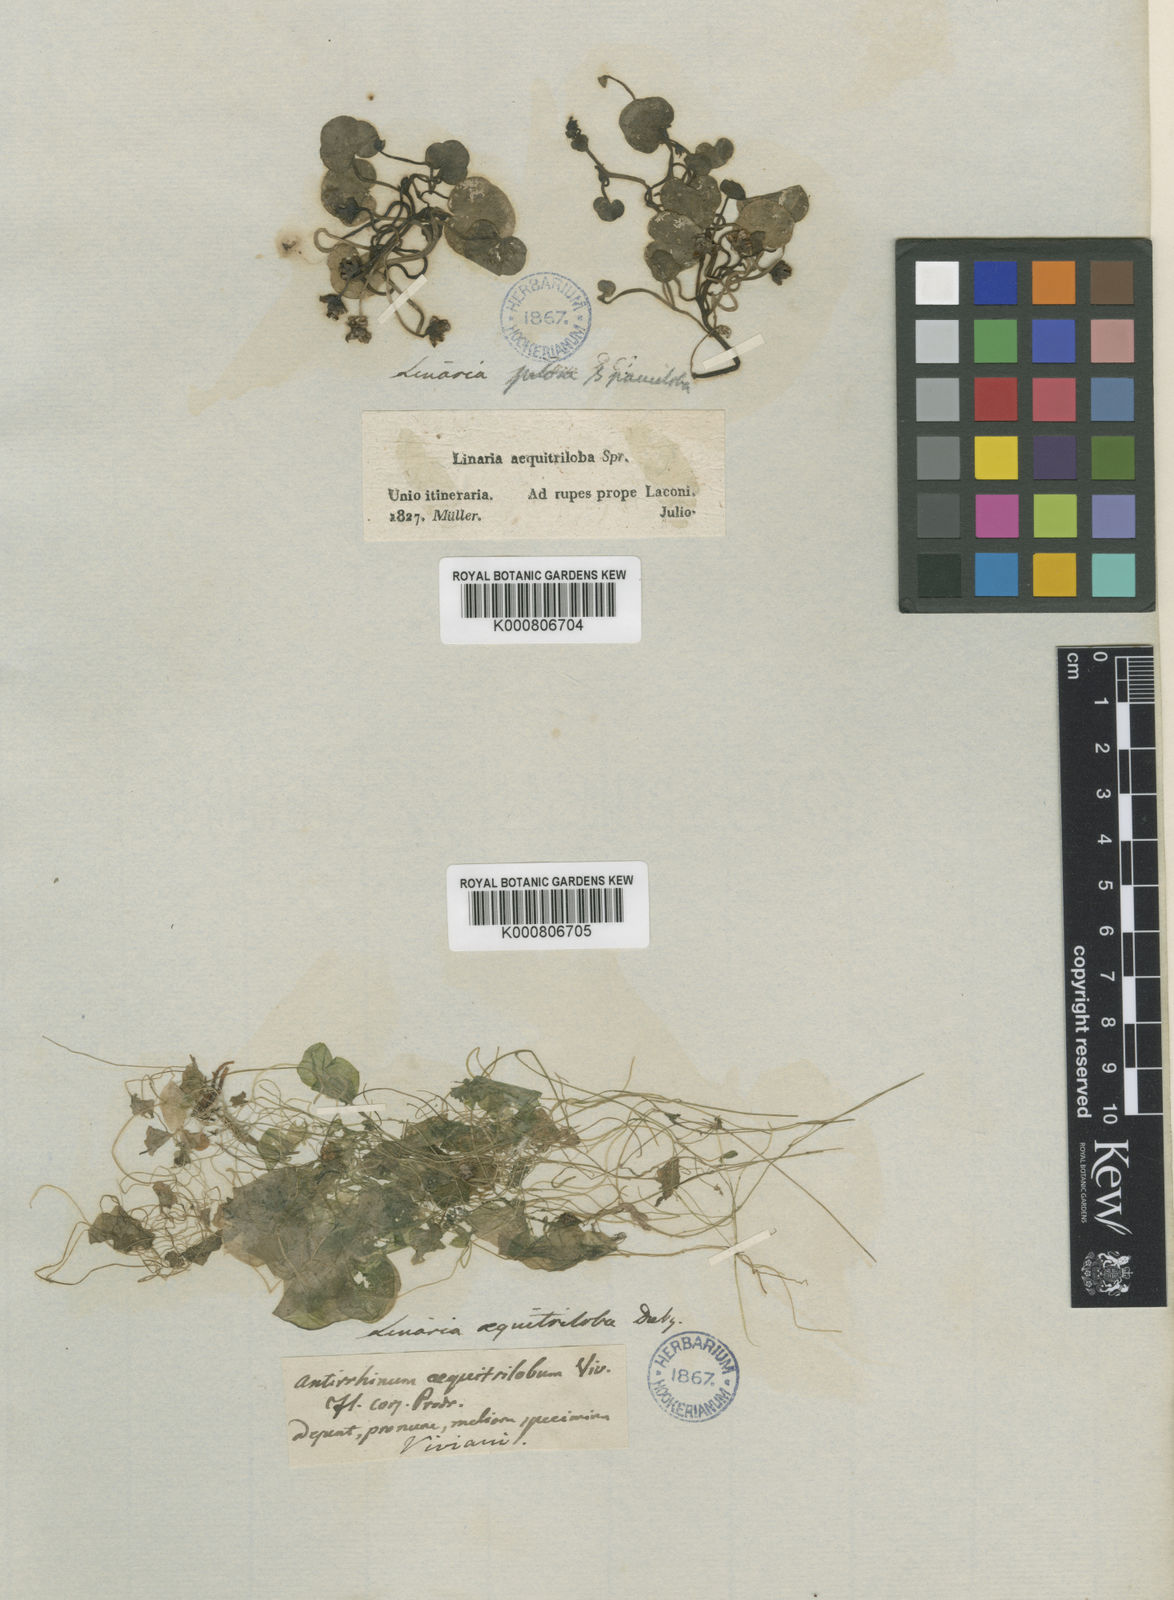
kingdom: Plantae
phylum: Tracheophyta
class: Magnoliopsida
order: Lamiales
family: Plantaginaceae
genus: Cymbalaria
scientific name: Cymbalaria pallida
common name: Italian toadflax
